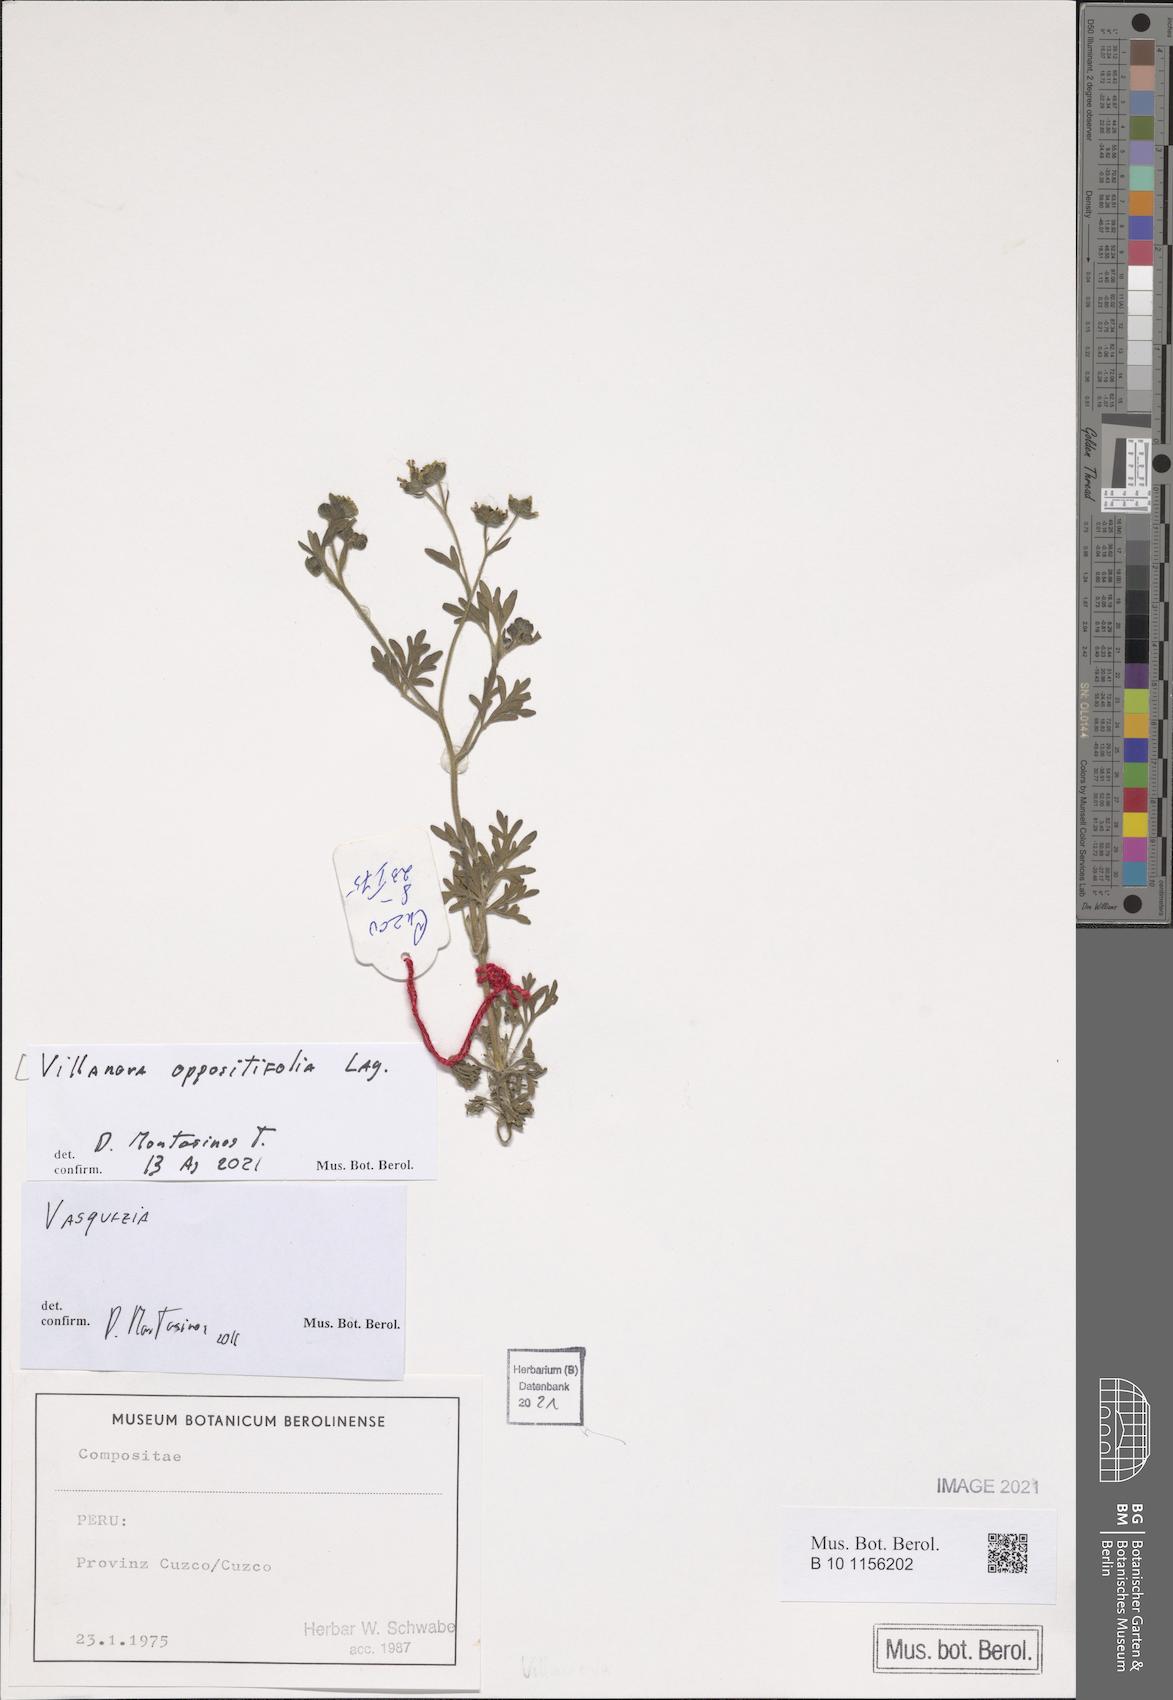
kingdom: Plantae
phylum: Tracheophyta
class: Magnoliopsida
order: Asterales
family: Asteraceae
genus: Villanova
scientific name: Villanova oppositifolia
